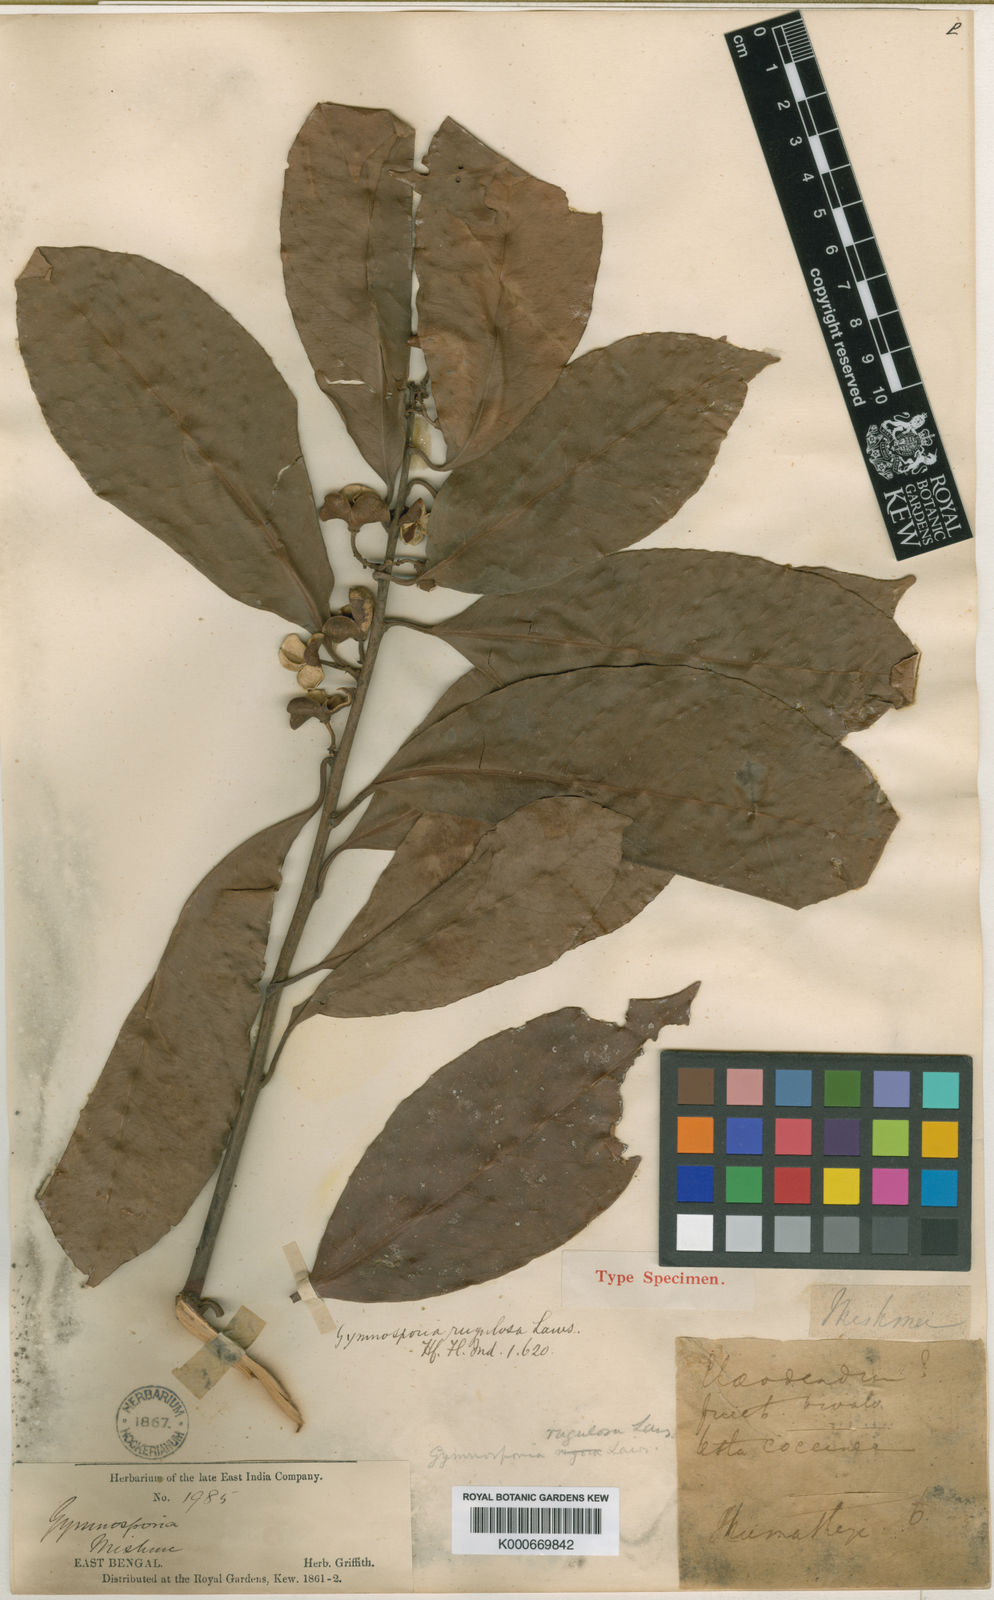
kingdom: Plantae
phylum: Tracheophyta
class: Magnoliopsida
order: Celastrales
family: Celastraceae
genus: Gymnosporia
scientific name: Gymnosporia oxyphylla
